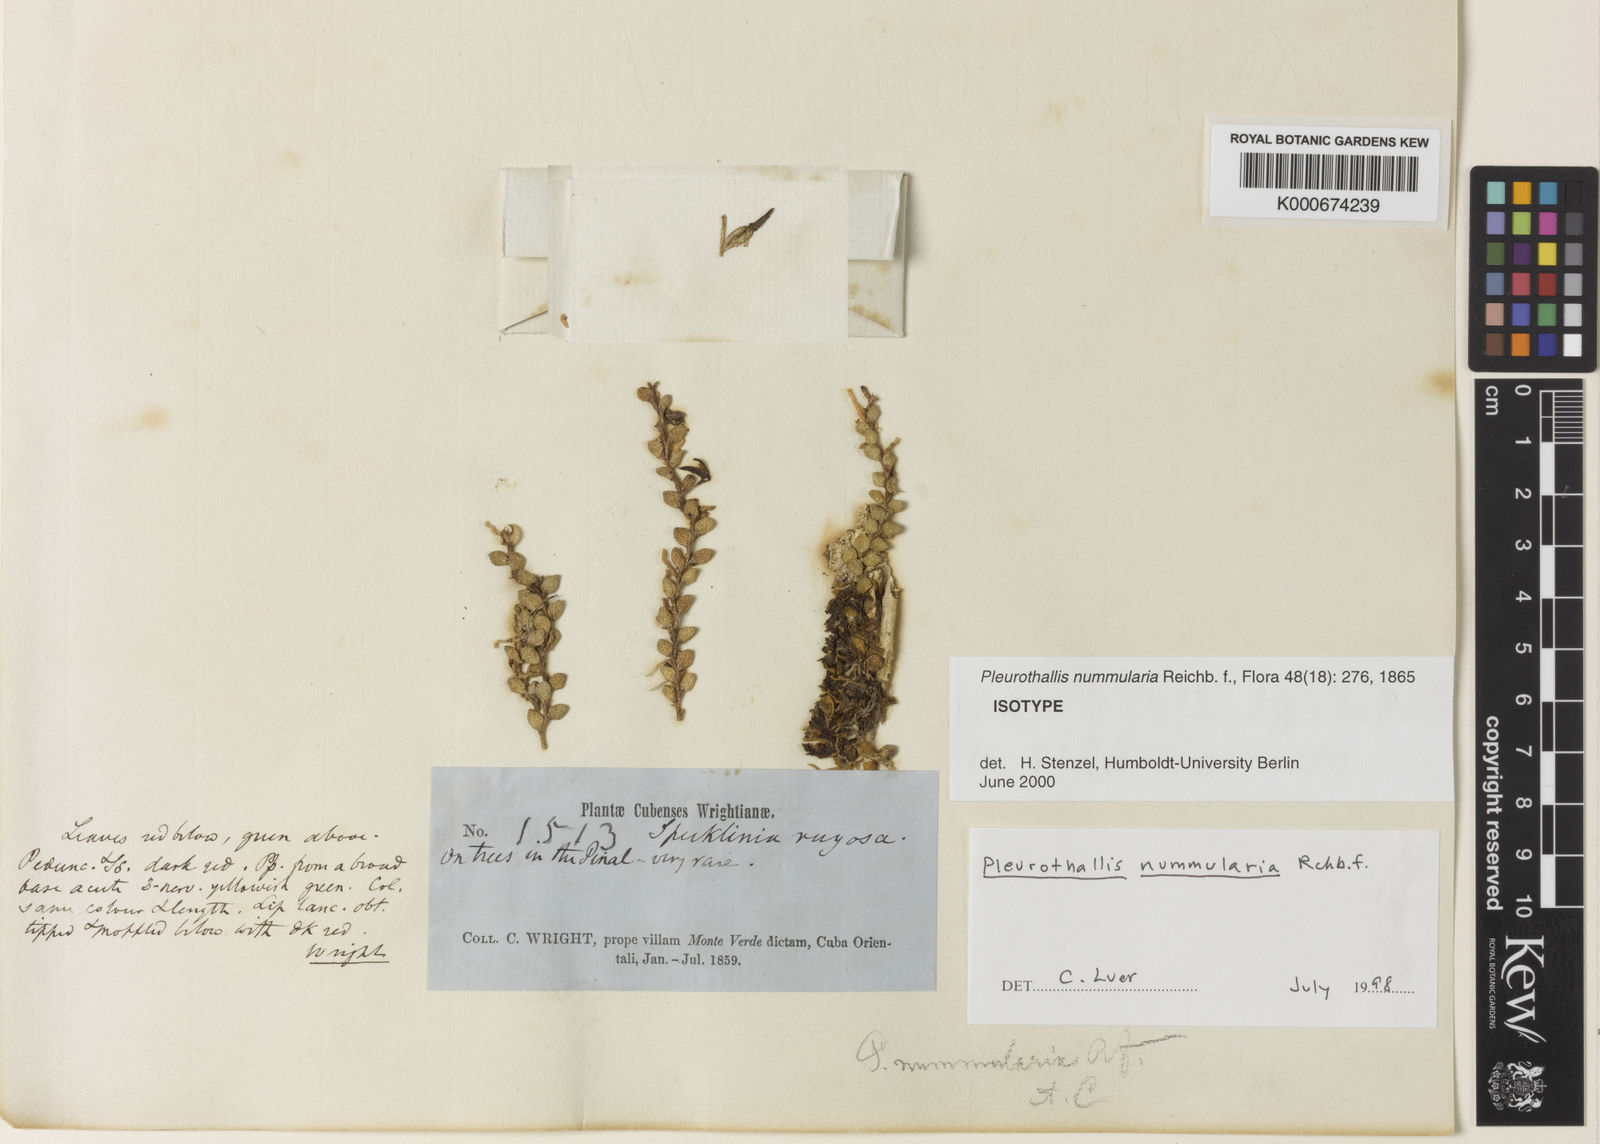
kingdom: Plantae
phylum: Tracheophyta
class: Liliopsida
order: Asparagales
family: Orchidaceae
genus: Phloeophila
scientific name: Phloeophila nummularia
